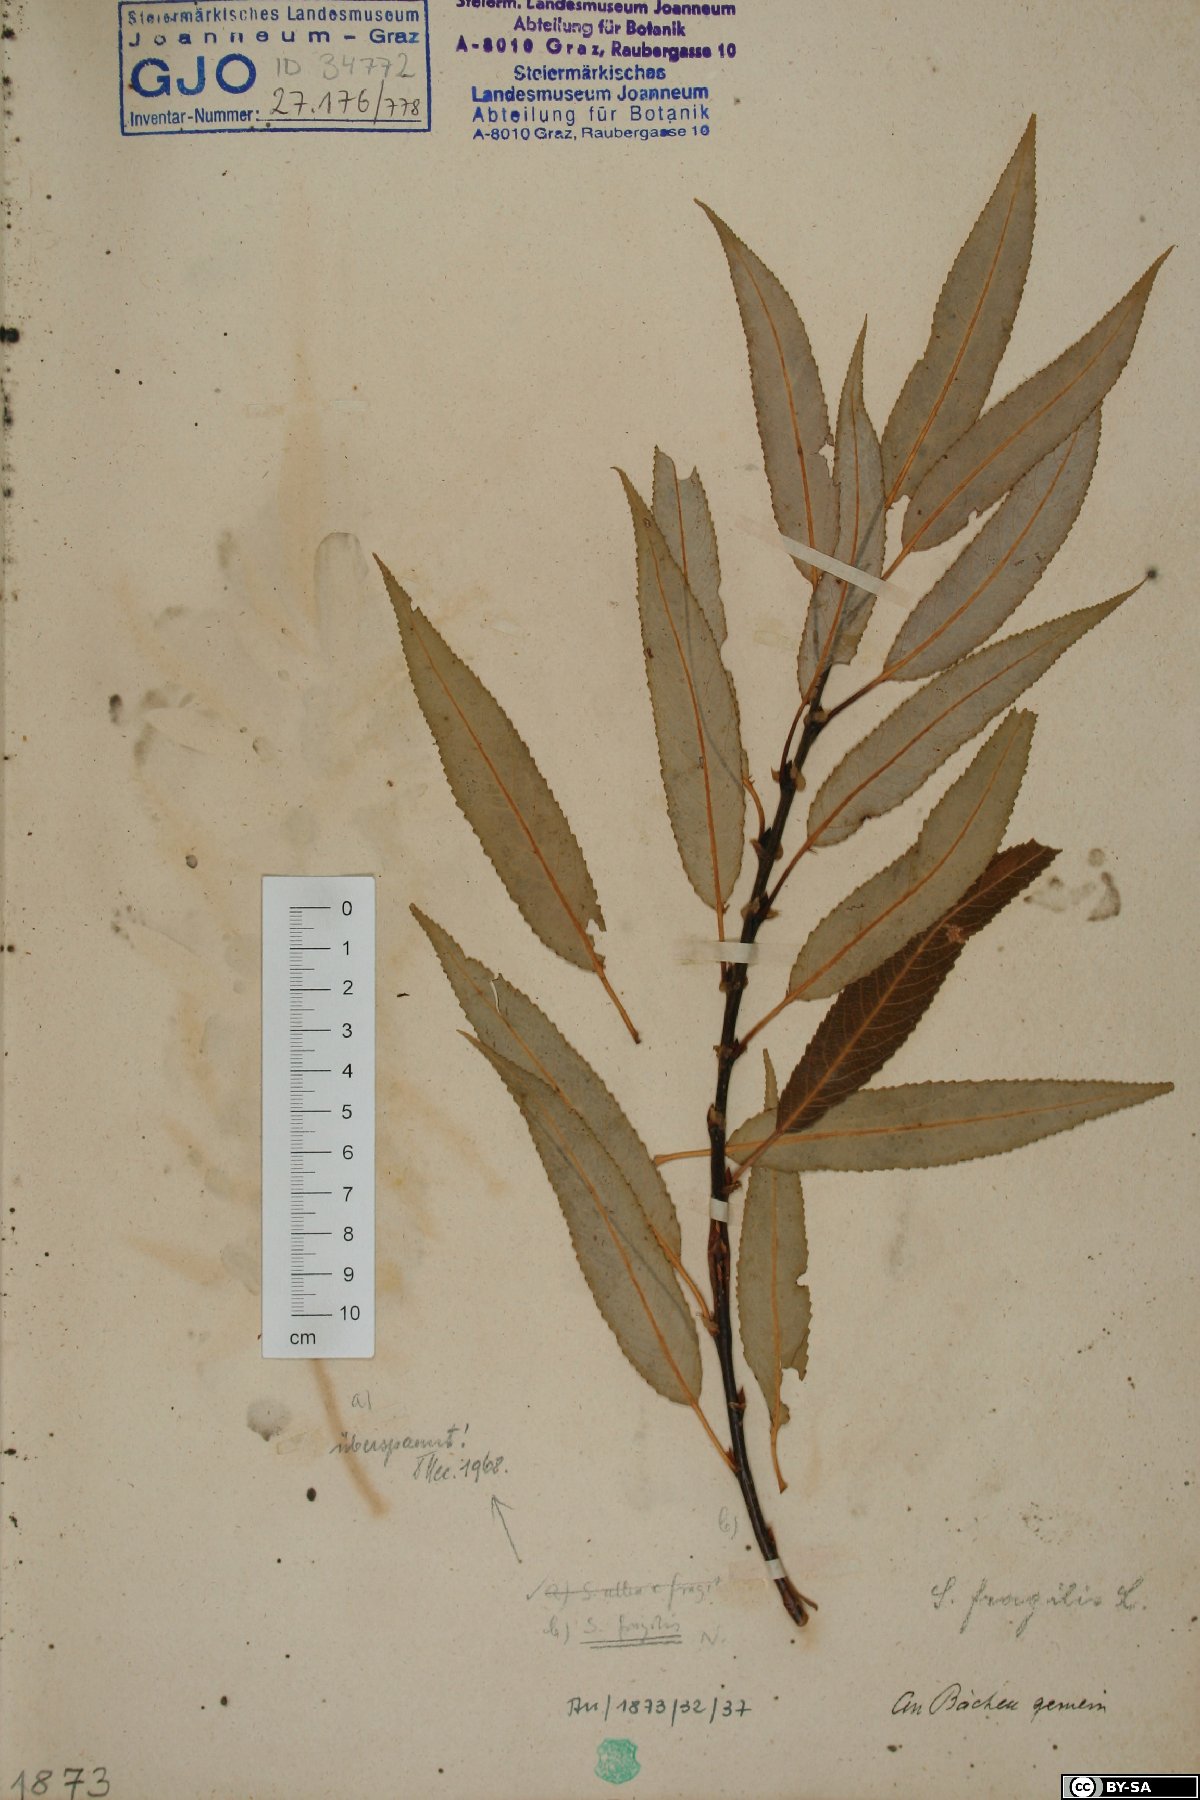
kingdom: Plantae
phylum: Tracheophyta
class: Magnoliopsida
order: Malpighiales
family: Salicaceae
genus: Salix
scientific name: Salix fragilis
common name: Crack willow
